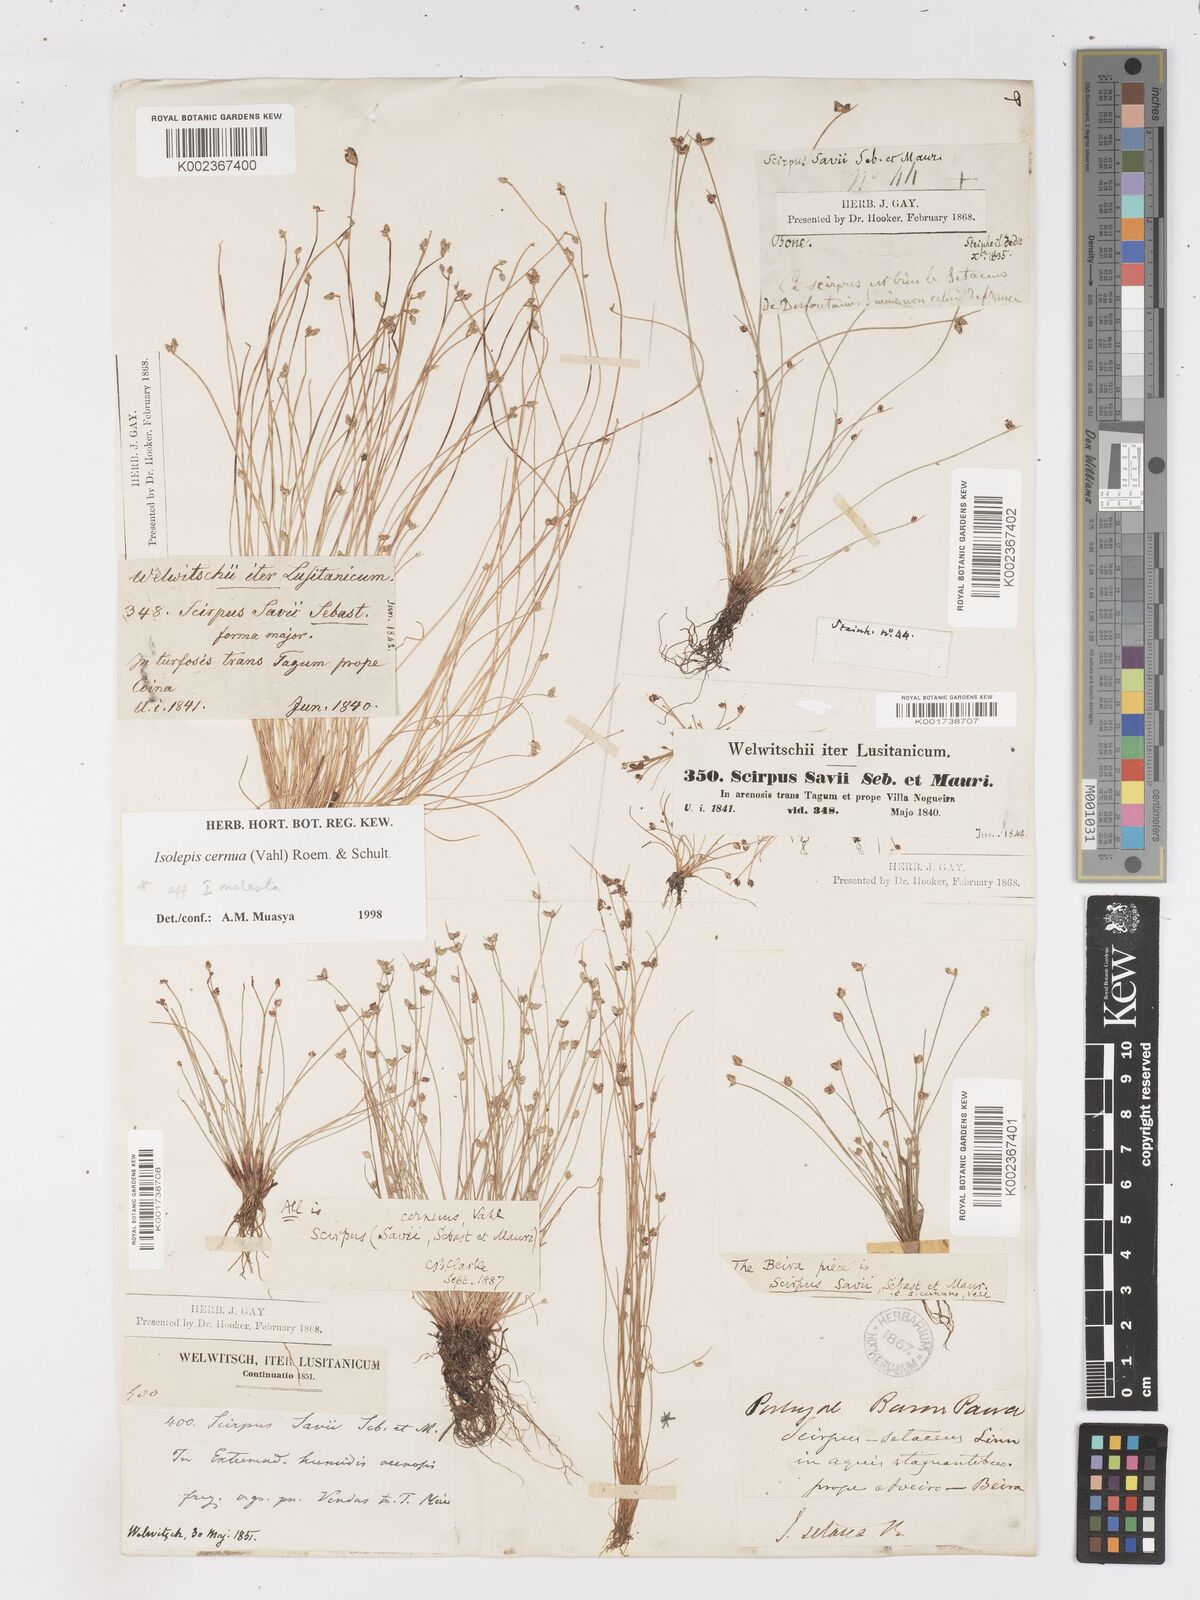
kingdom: Plantae
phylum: Tracheophyta
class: Liliopsida
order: Poales
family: Cyperaceae
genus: Isolepis
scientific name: Isolepis cernua
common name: Slender club-rush
